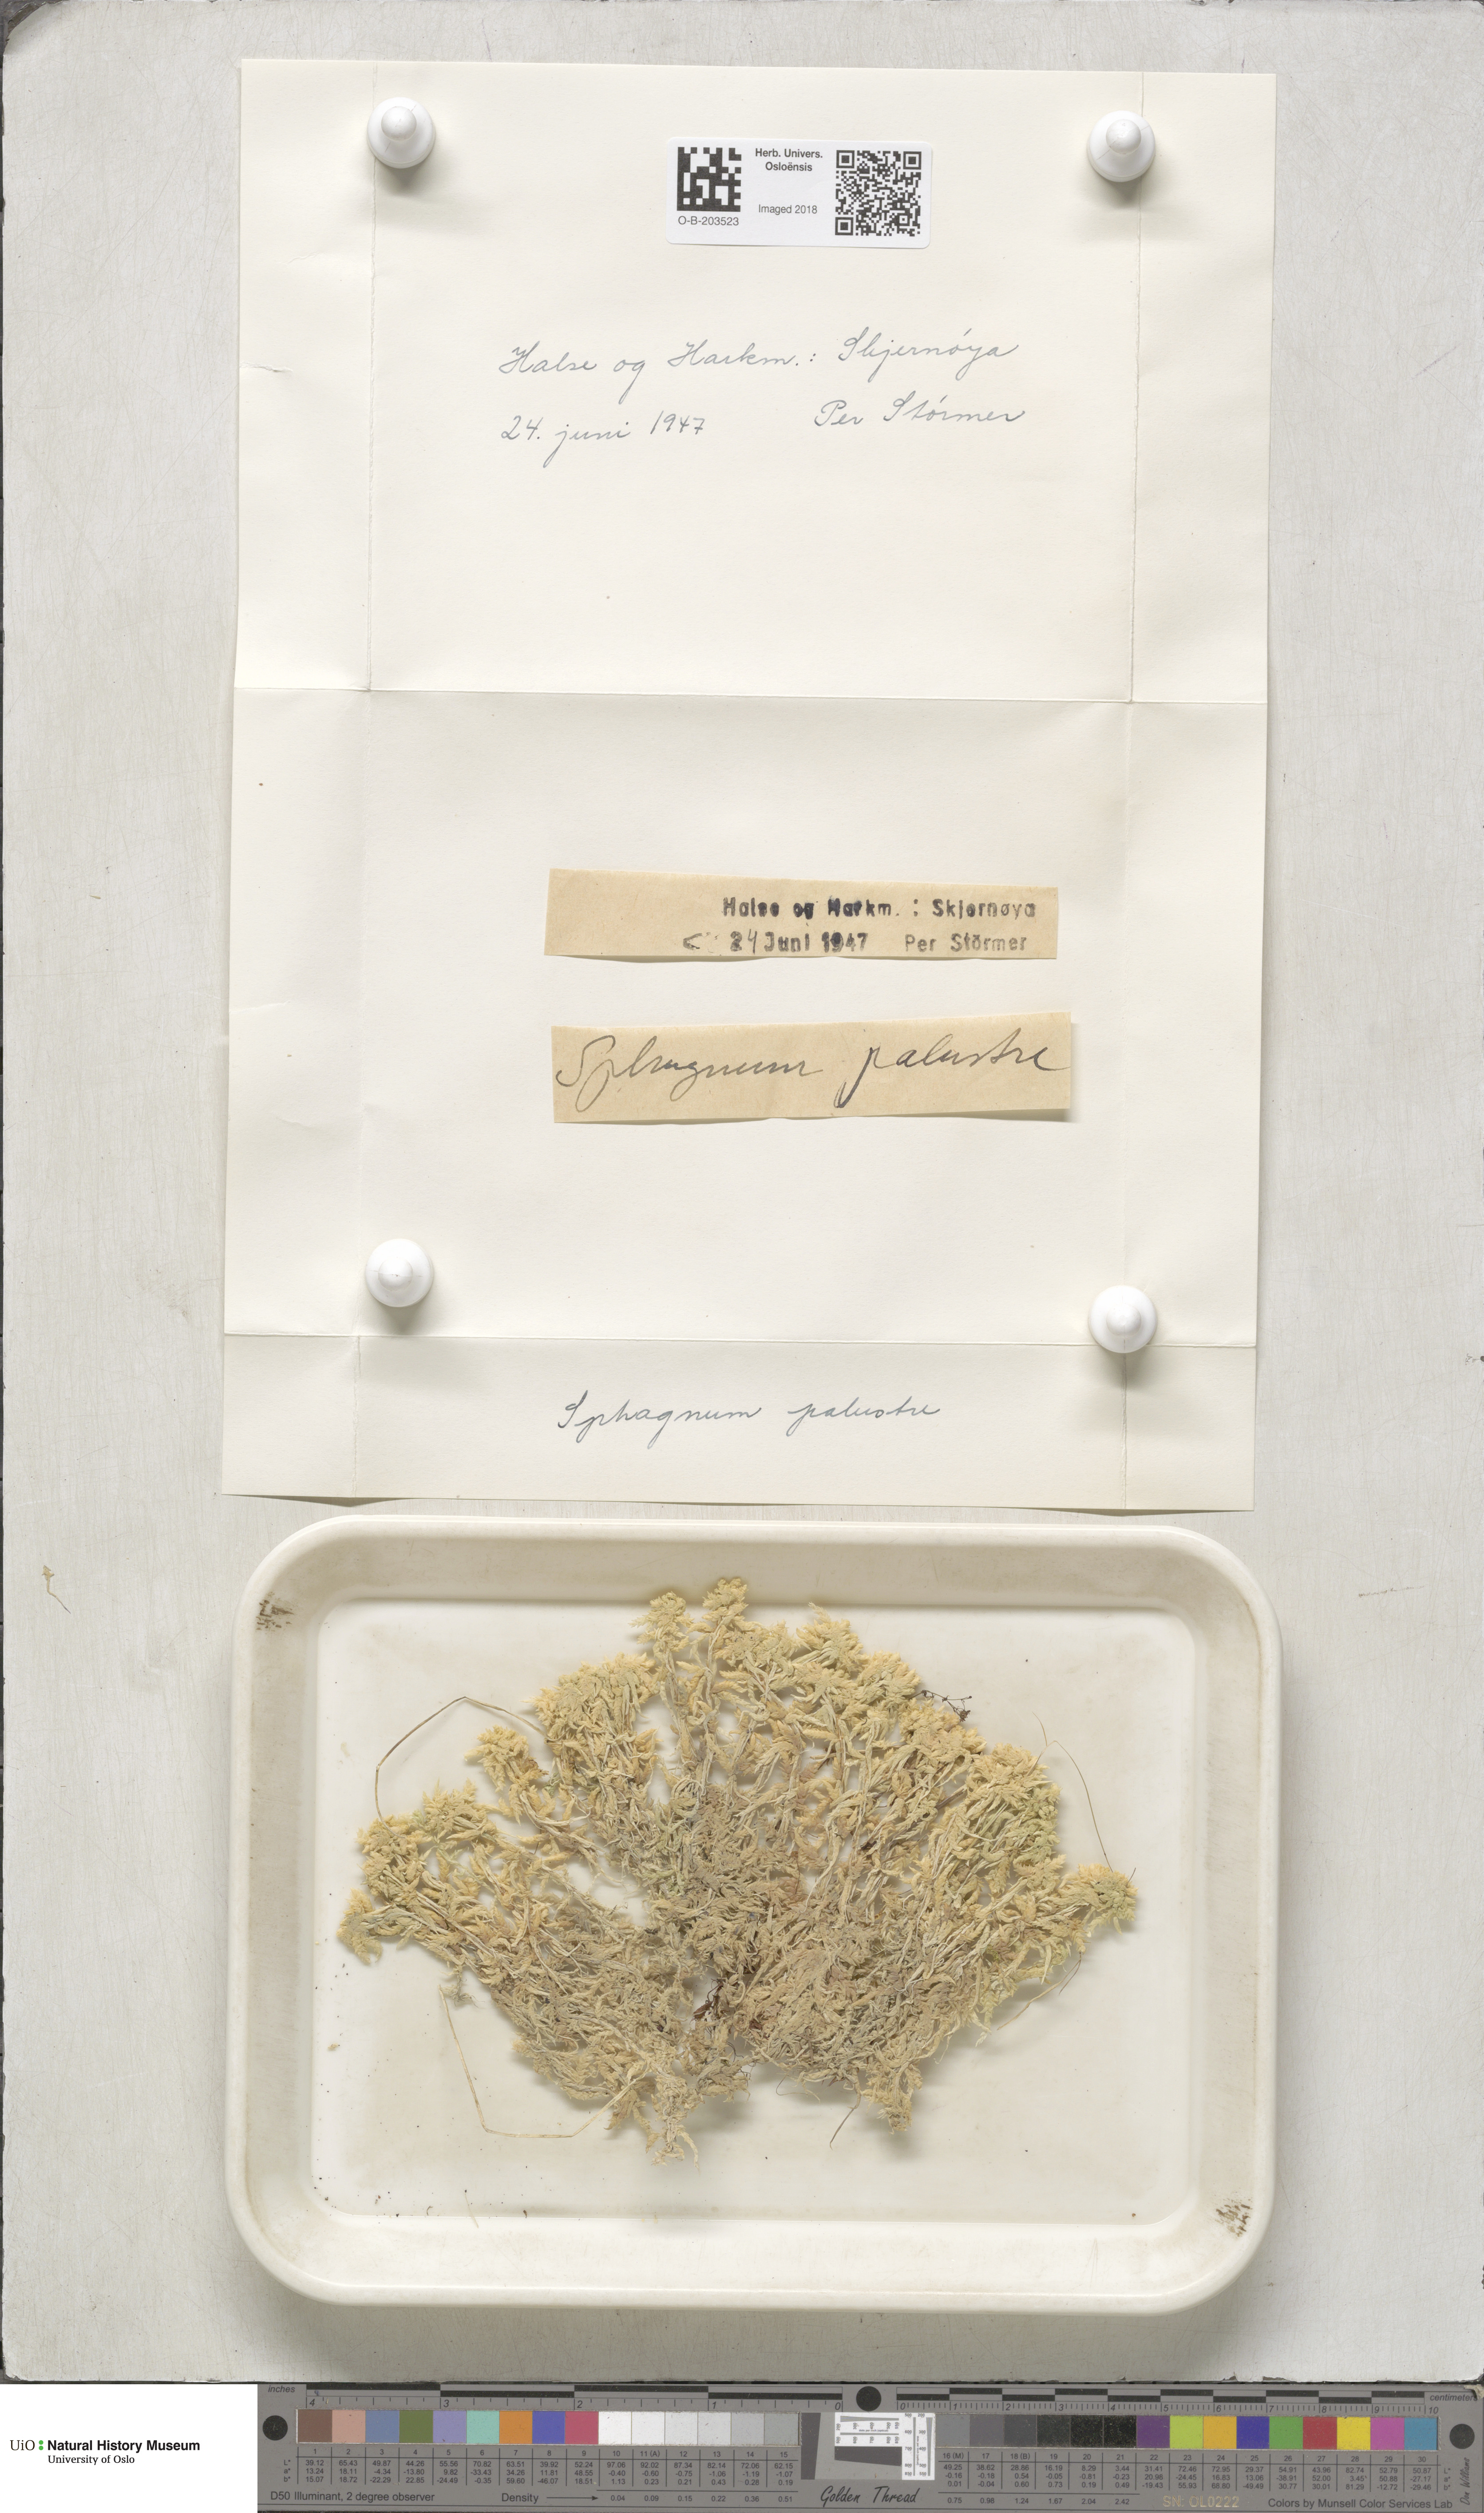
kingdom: Plantae
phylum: Bryophyta
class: Sphagnopsida
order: Sphagnales
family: Sphagnaceae
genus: Sphagnum
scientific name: Sphagnum palustre
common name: Blunt-leaved bog-moss
